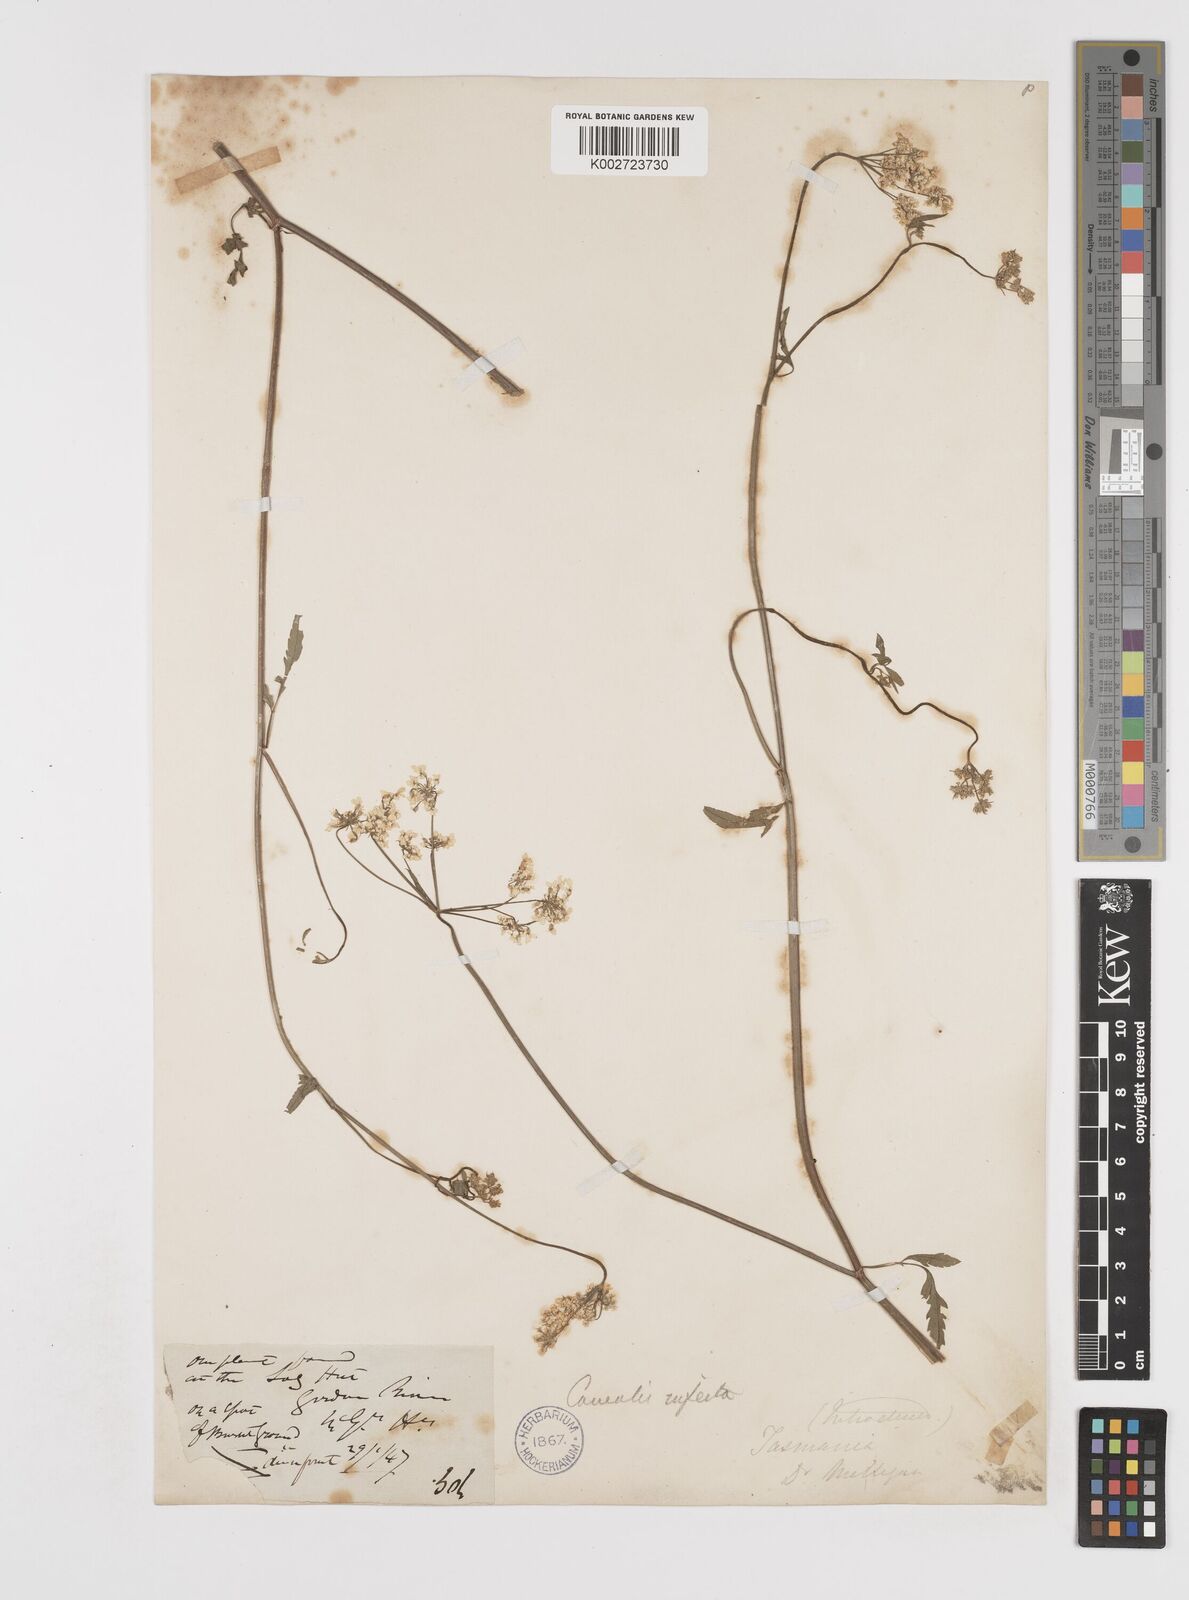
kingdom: Plantae
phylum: Tracheophyta
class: Magnoliopsida
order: Apiales
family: Apiaceae
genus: Torilis
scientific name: Torilis arvensis
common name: Spreading hedge-parsley
